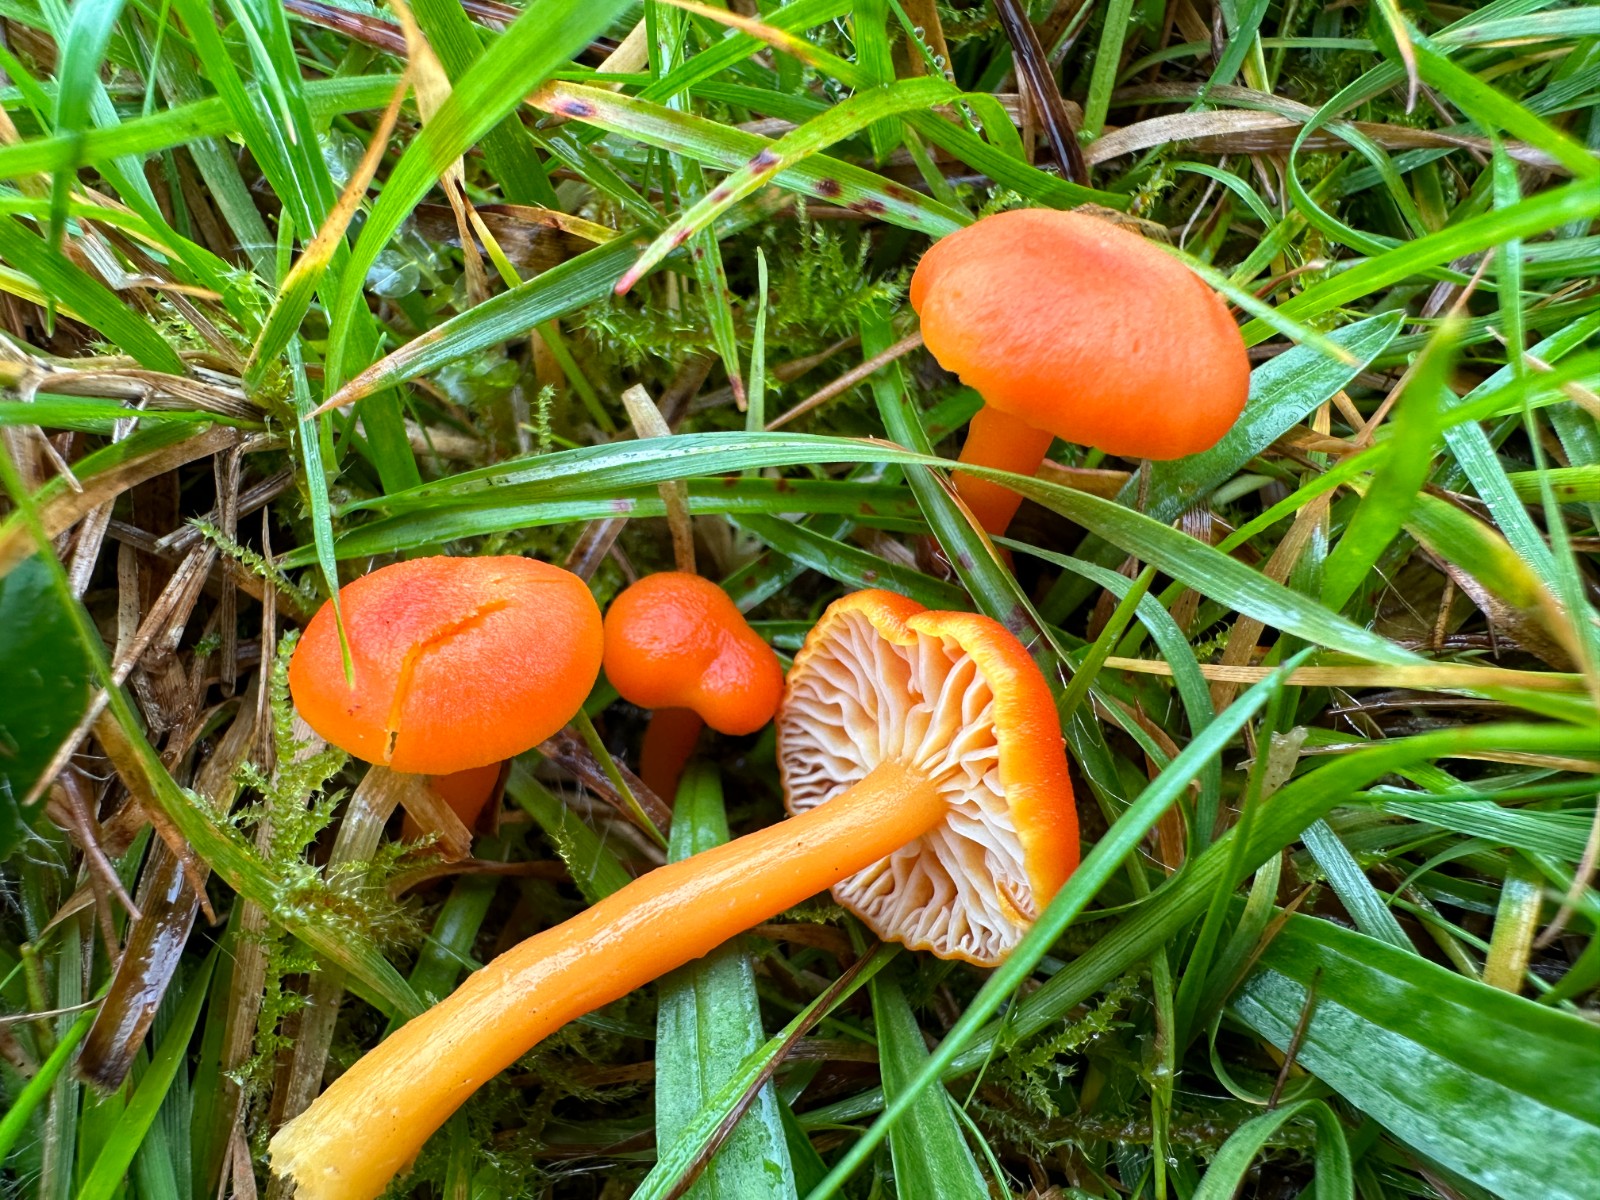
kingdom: Fungi
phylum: Basidiomycota
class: Agaricomycetes
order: Agaricales
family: Hygrophoraceae
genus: Hygrocybe
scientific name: Hygrocybe miniata
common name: mønje-vokshat
